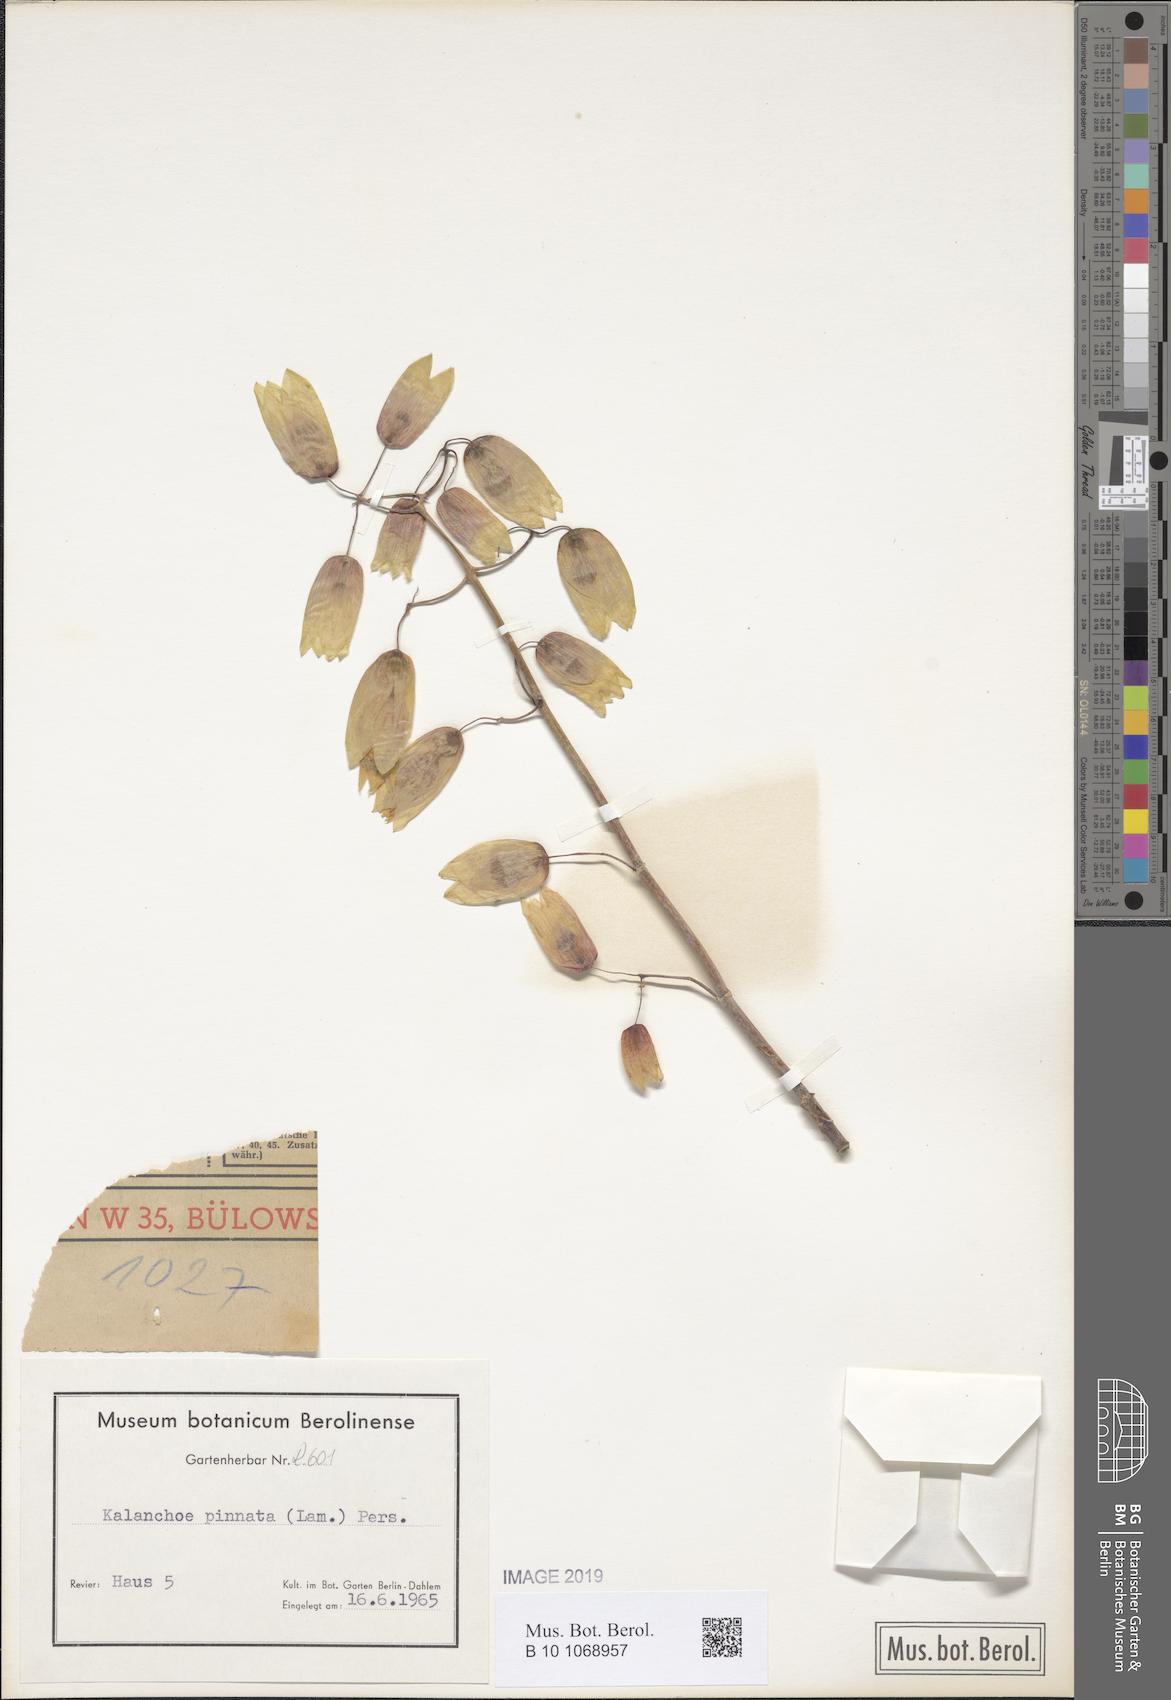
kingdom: Plantae
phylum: Tracheophyta
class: Magnoliopsida
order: Saxifragales
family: Crassulaceae
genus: Kalanchoe
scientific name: Kalanchoe pinnata
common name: Cathedral bells
